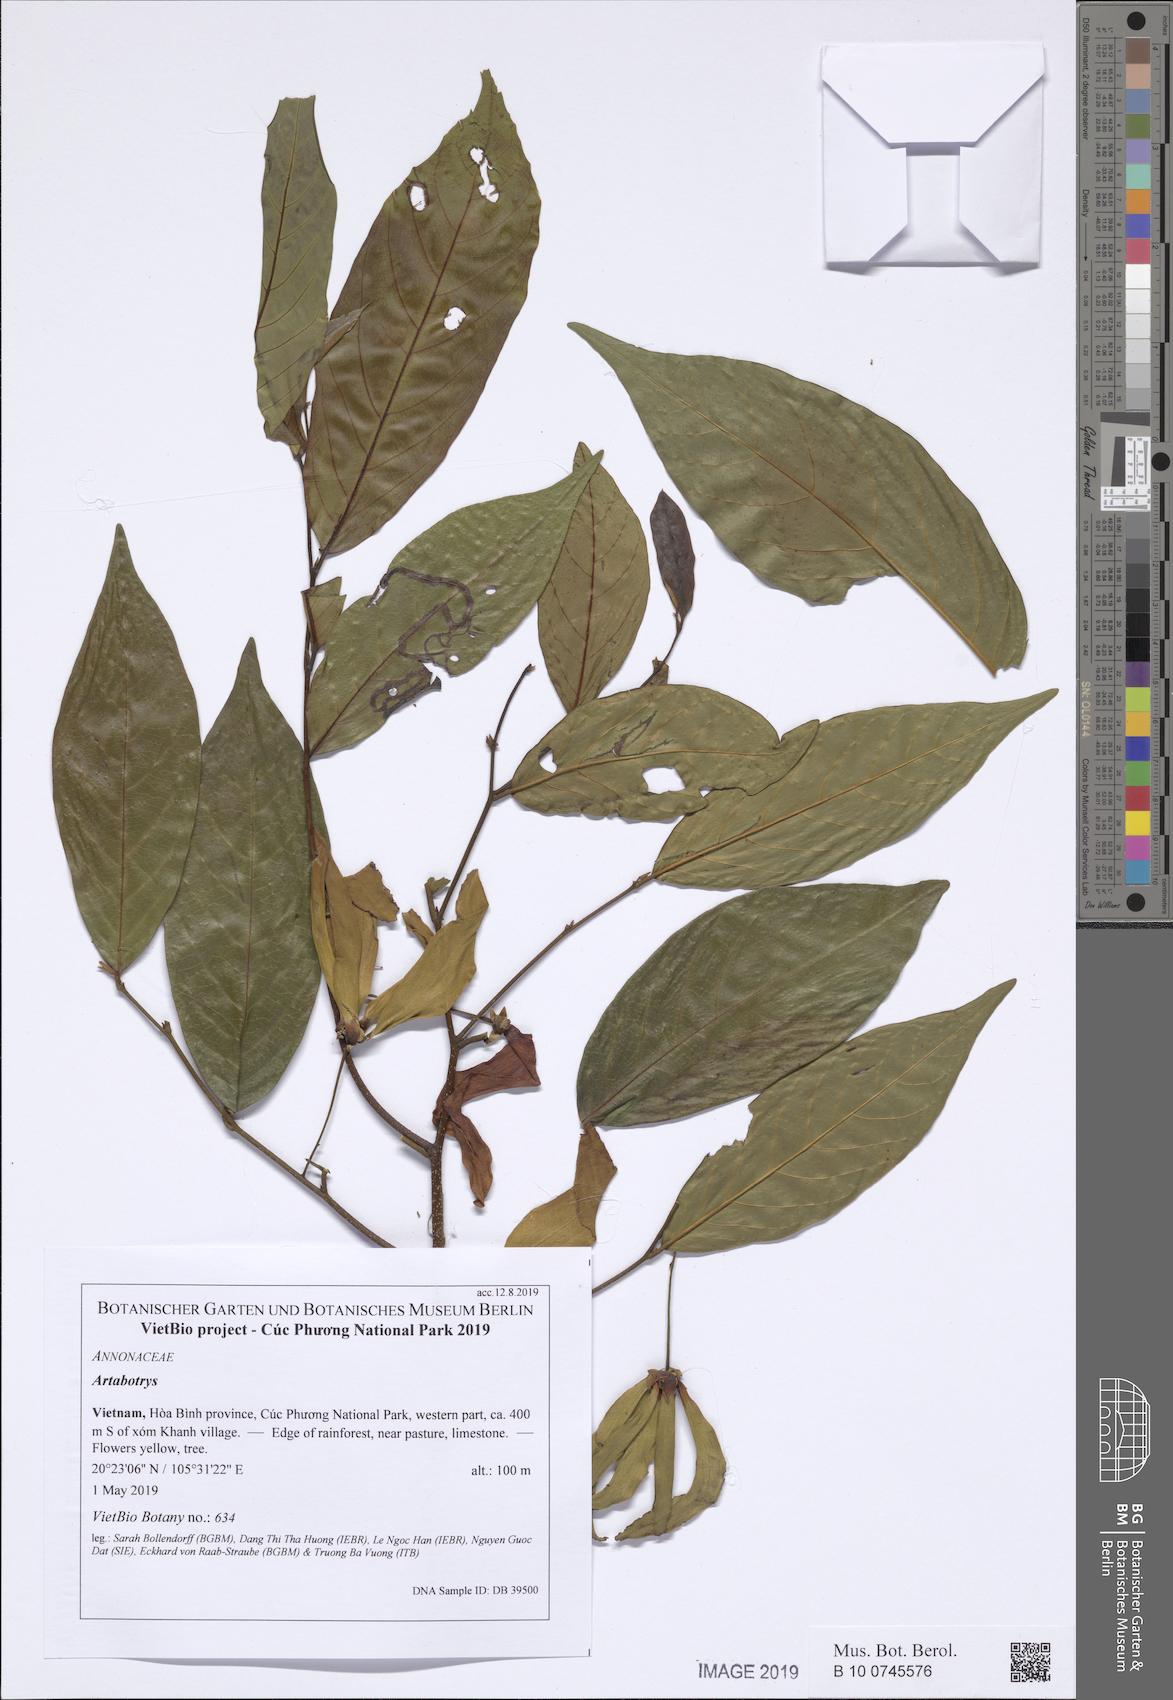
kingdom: Plantae
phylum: Tracheophyta
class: Magnoliopsida
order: Magnoliales
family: Annonaceae
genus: Desmos
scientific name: Desmos
